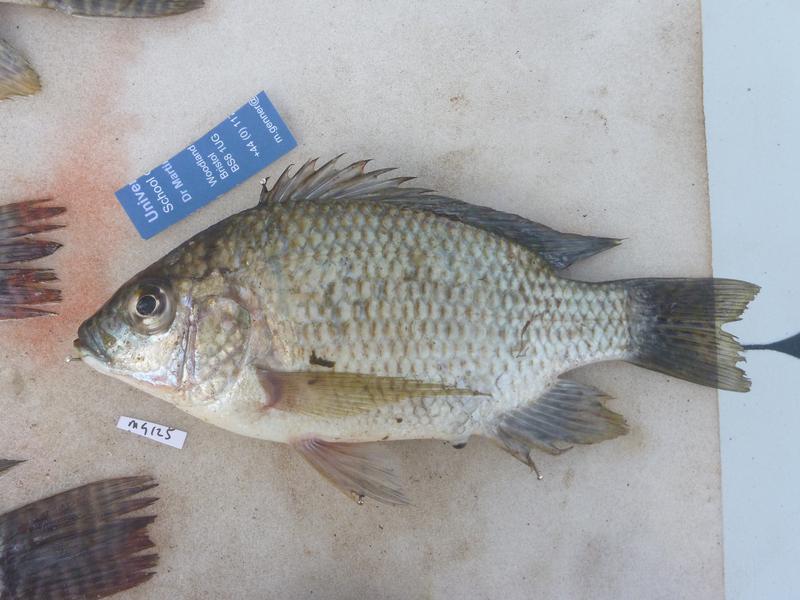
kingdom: Animalia
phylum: Chordata
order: Perciformes
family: Cichlidae
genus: Oreochromis
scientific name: Oreochromis tanganicae
